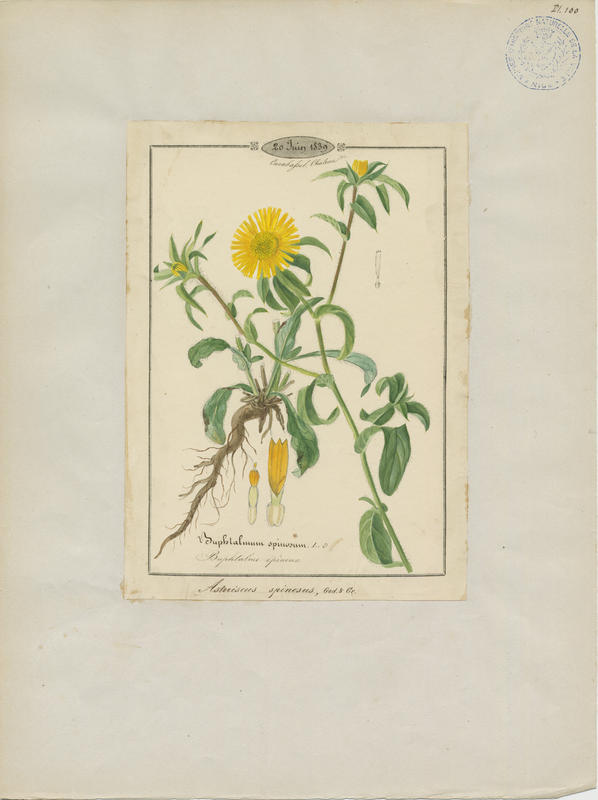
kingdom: Plantae
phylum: Tracheophyta
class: Magnoliopsida
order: Asterales
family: Asteraceae
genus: Pallenis
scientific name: Pallenis spinosa
